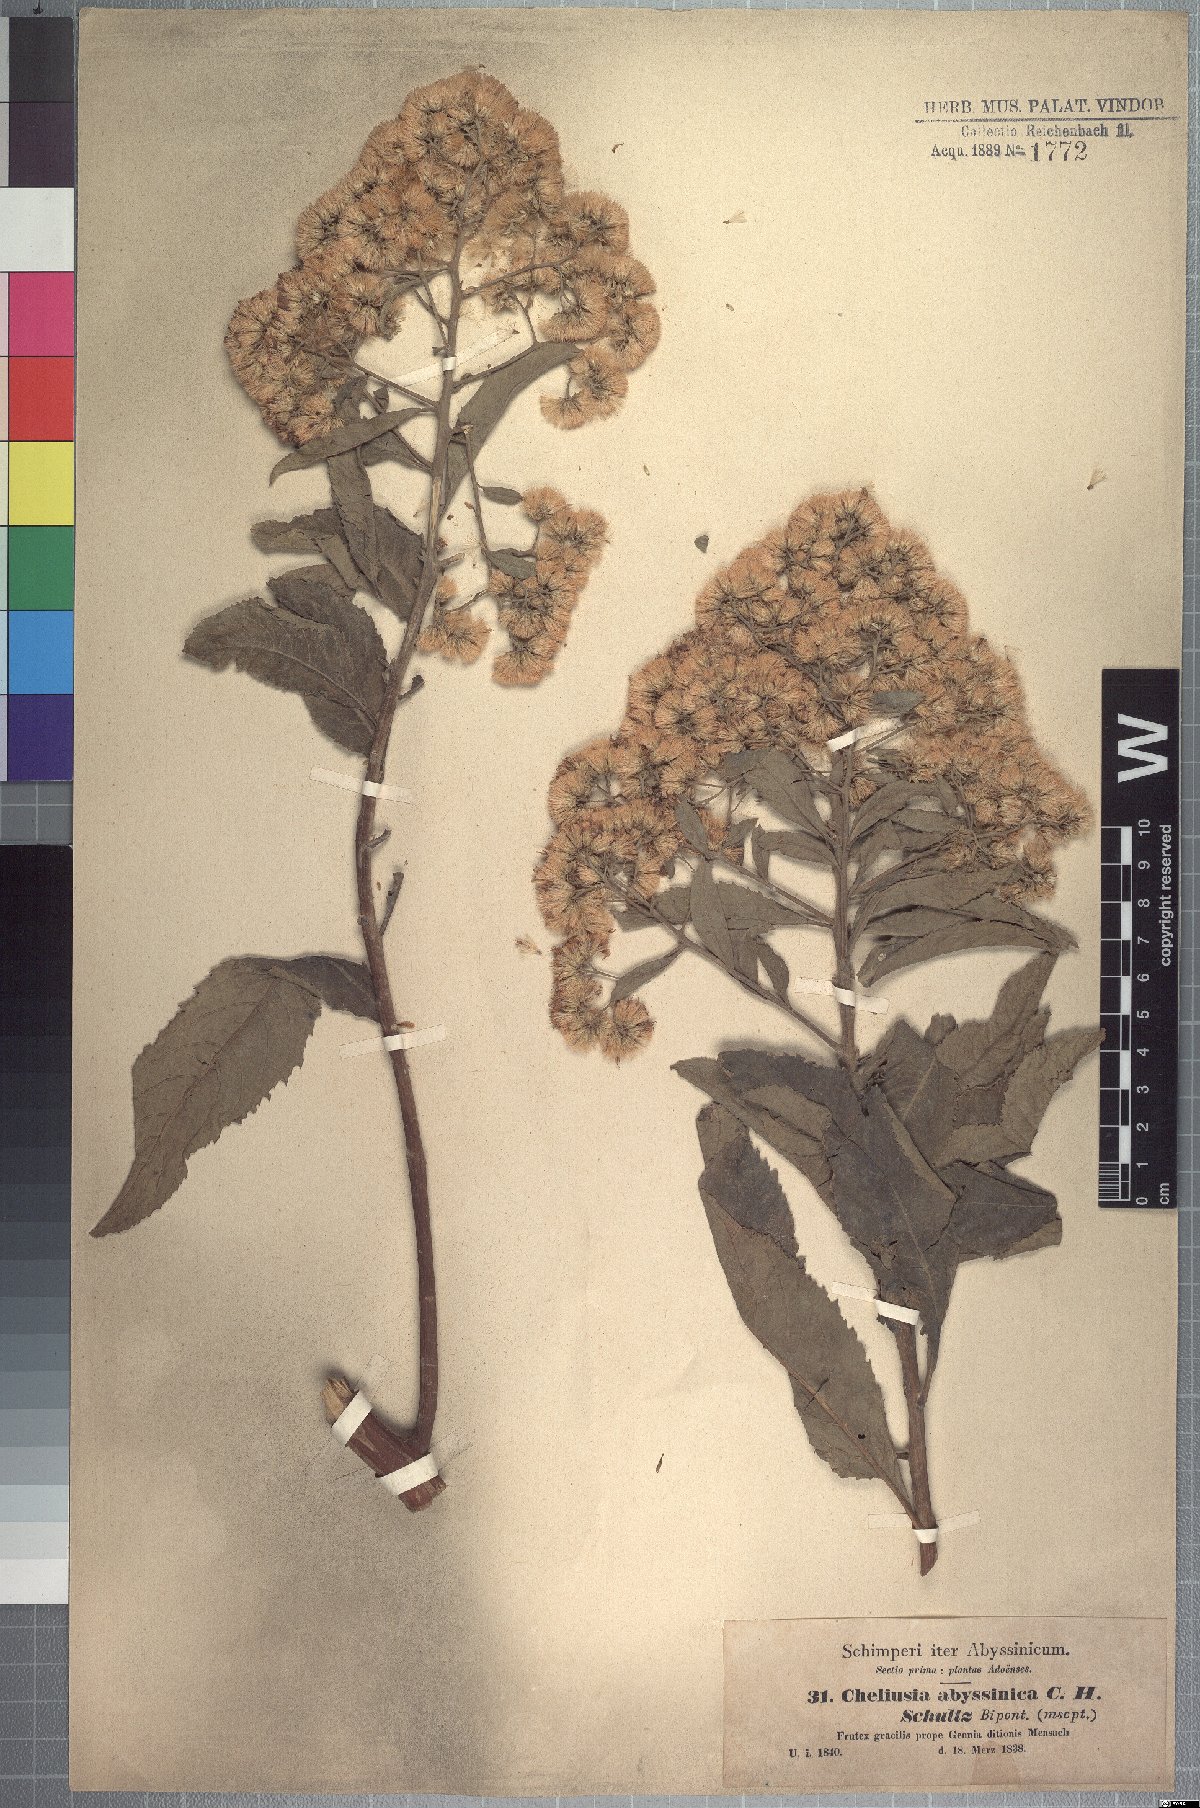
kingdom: Plantae
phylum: Tracheophyta
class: Magnoliopsida
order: Asterales
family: Asteraceae
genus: Gymnanthemum
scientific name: Gymnanthemum amygdalinum
